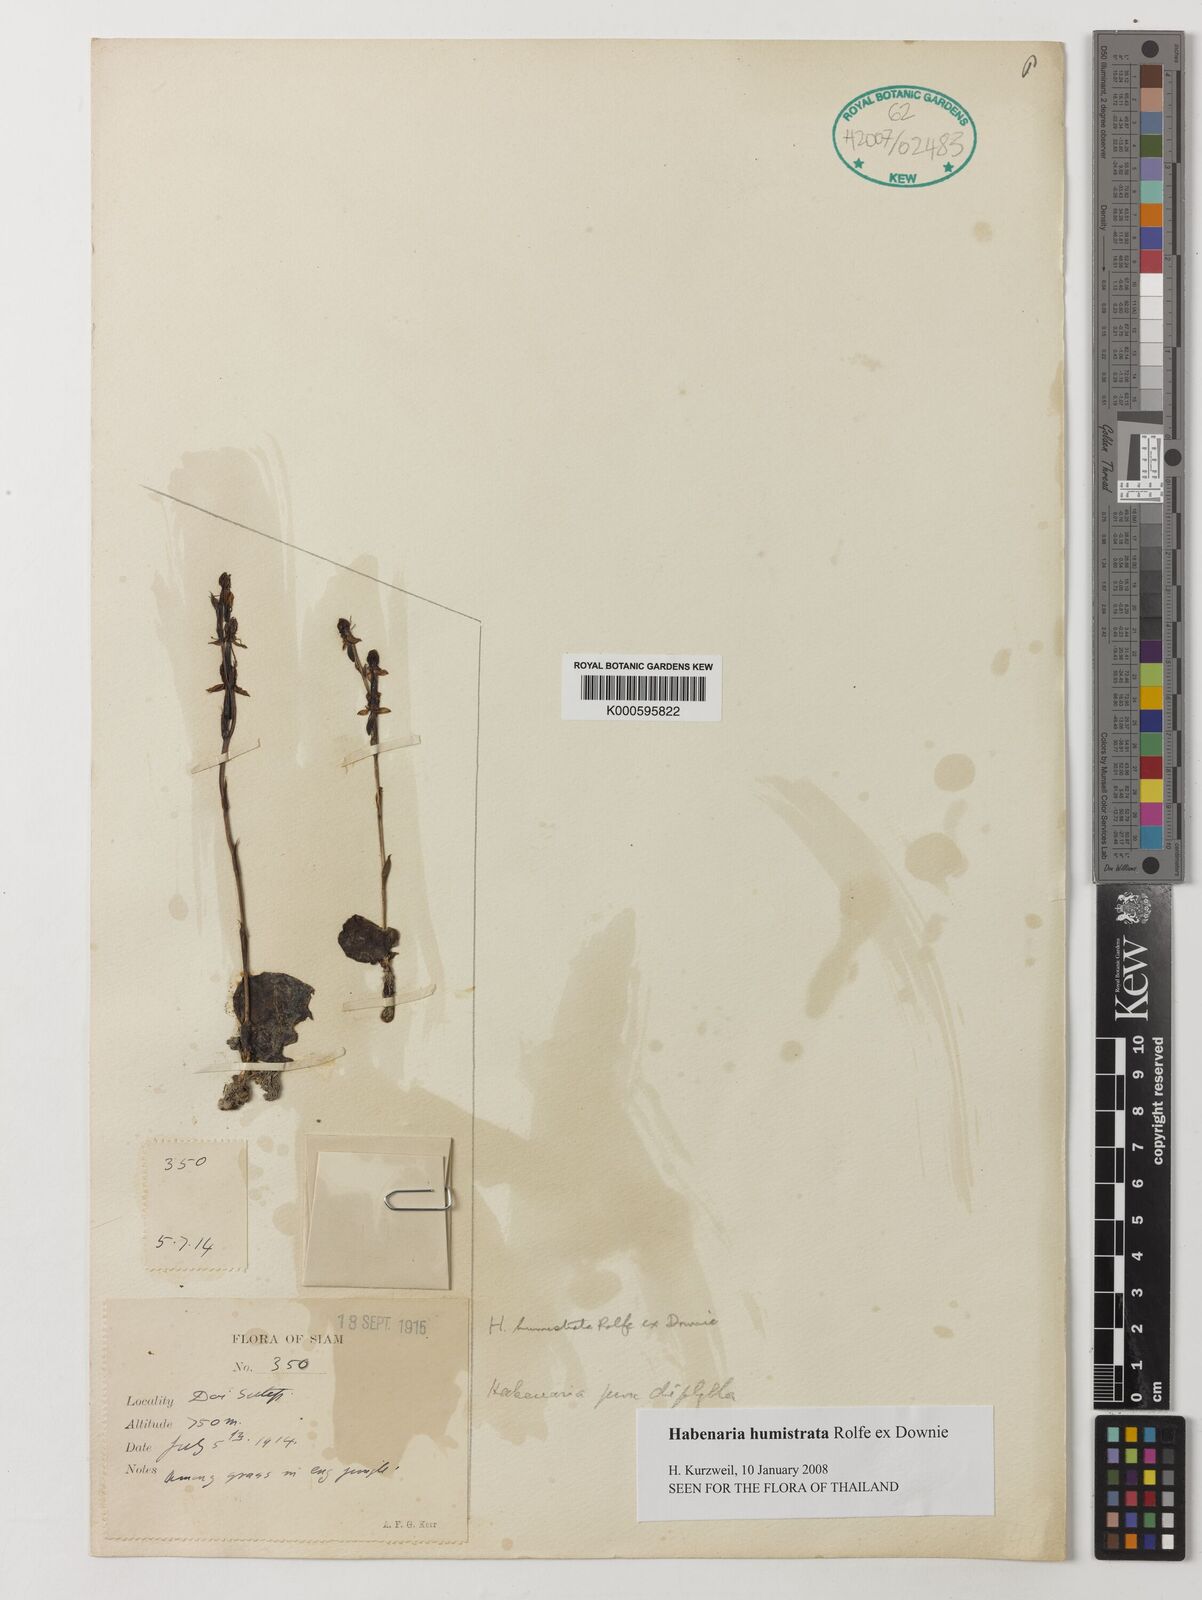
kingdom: Plantae
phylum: Tracheophyta
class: Liliopsida
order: Asparagales
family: Orchidaceae
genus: Habenaria
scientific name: Habenaria diphylla
